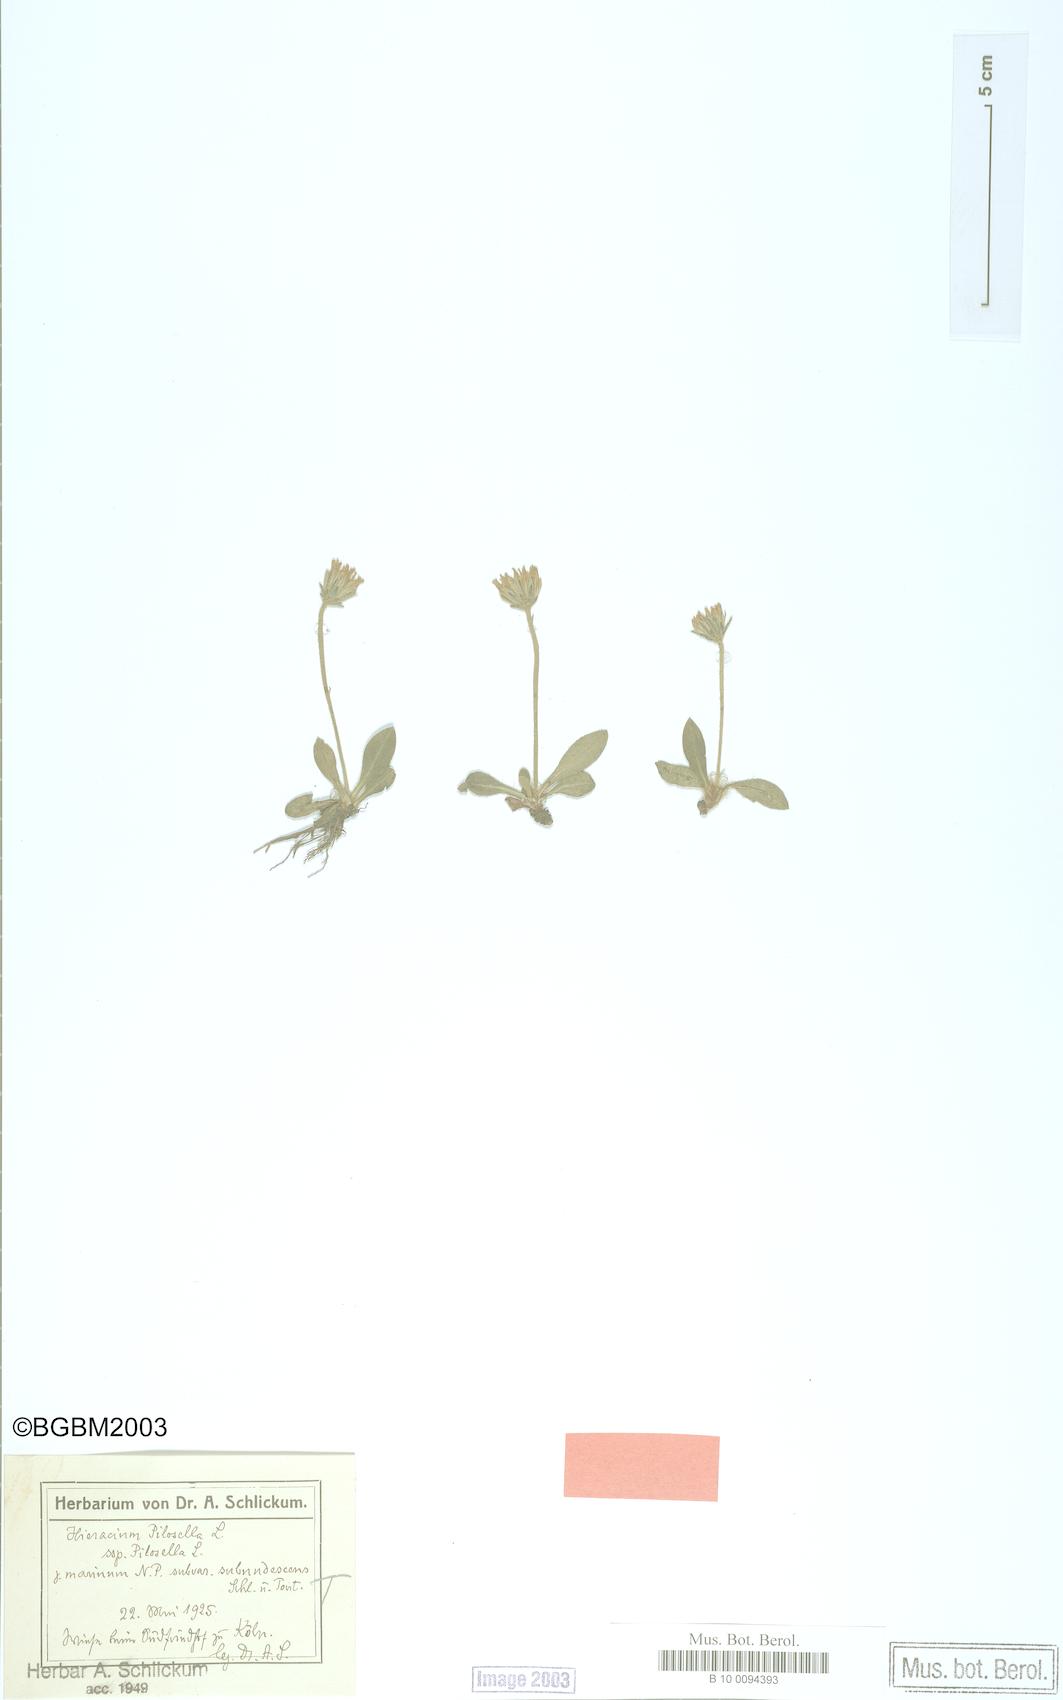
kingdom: Plantae
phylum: Tracheophyta
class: Magnoliopsida
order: Asterales
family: Asteraceae
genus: Pilosella
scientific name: Pilosella velutina
